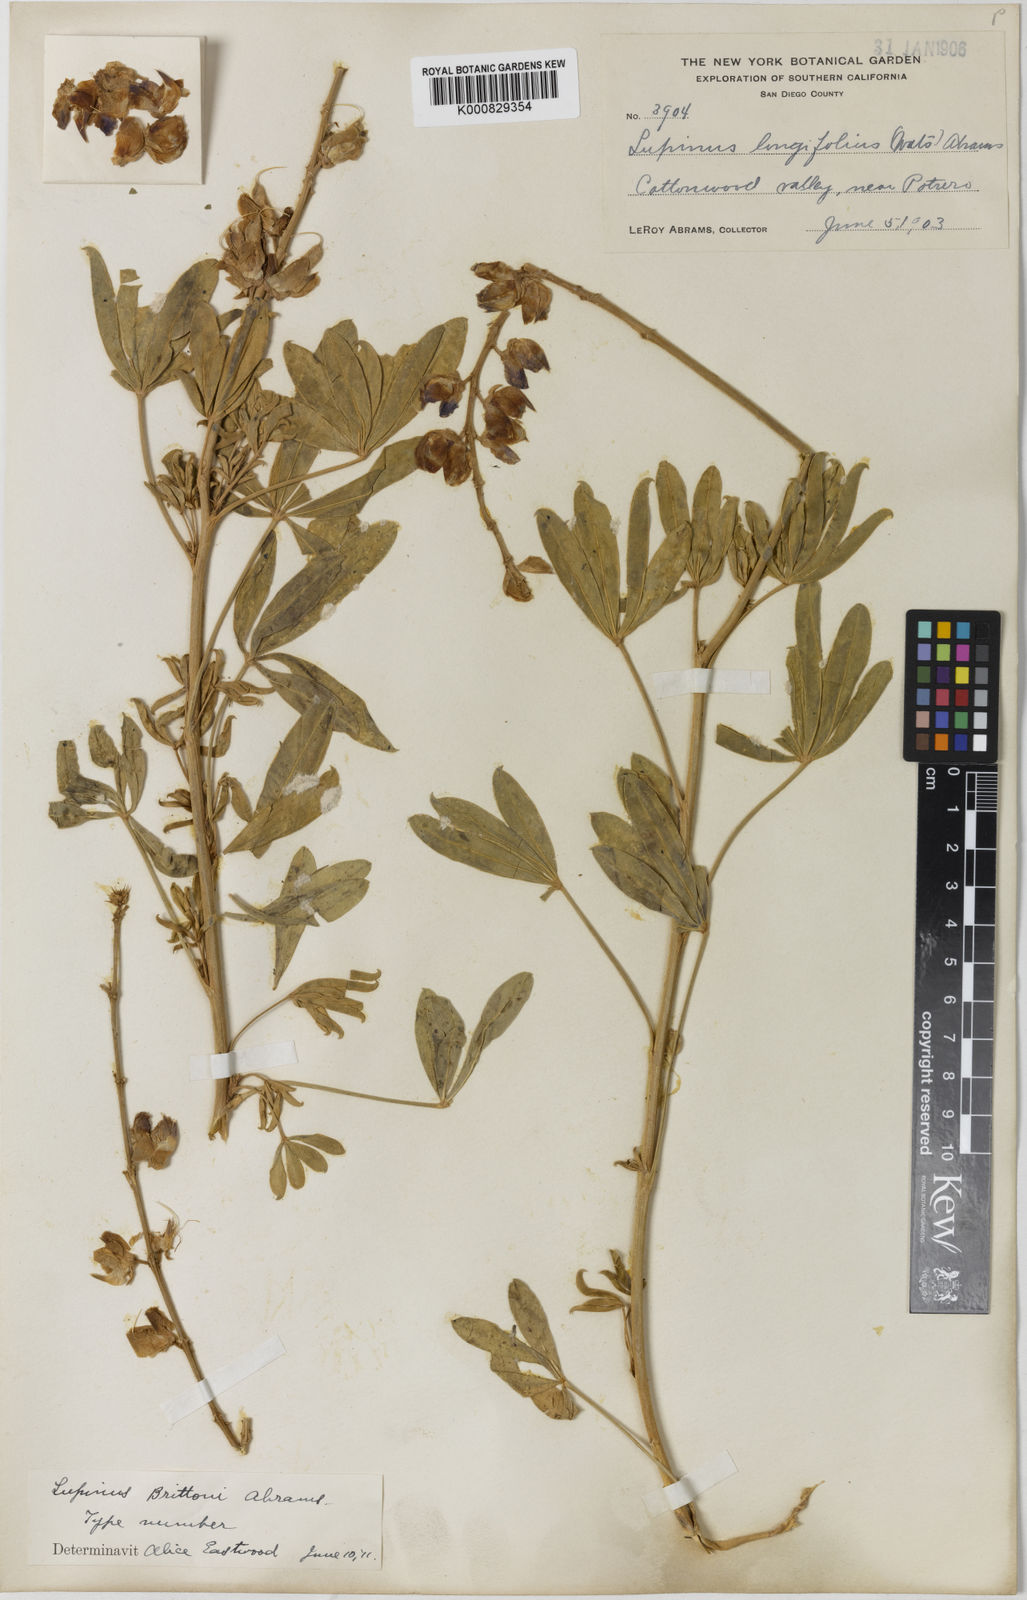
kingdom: Plantae
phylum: Tracheophyta
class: Magnoliopsida
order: Fabales
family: Fabaceae
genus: Lupinus
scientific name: Lupinus longifolius
